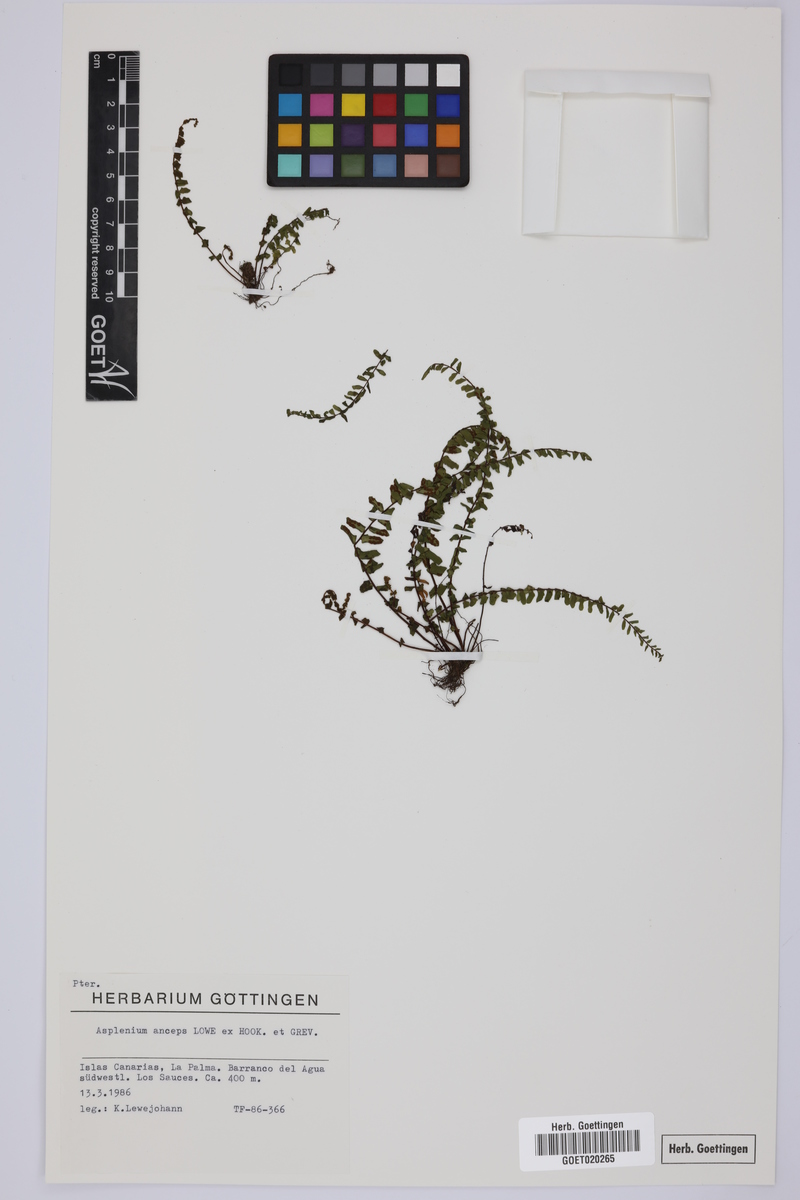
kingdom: Plantae
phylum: Tracheophyta
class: Polypodiopsida
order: Polypodiales
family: Aspleniaceae
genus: Asplenium
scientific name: Asplenium anceps
